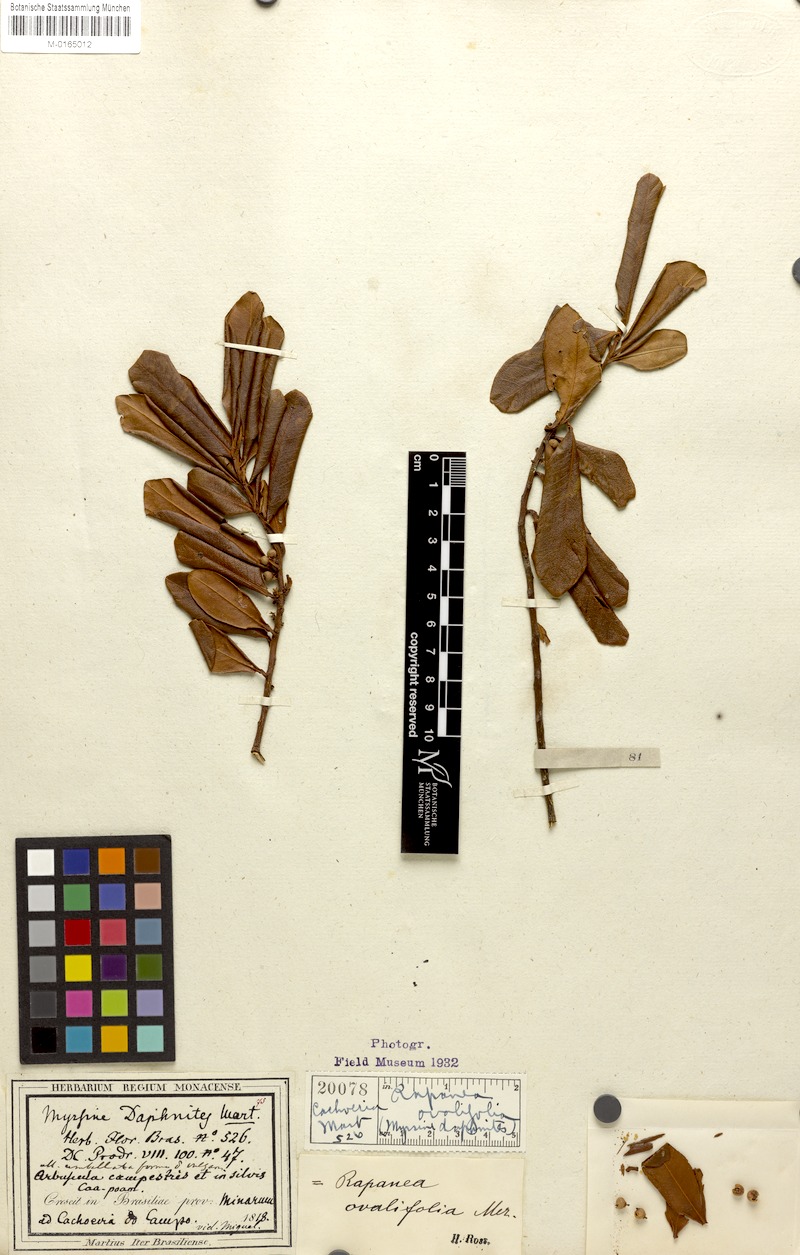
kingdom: Plantae
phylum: Tracheophyta
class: Magnoliopsida
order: Ericales
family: Primulaceae
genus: Myrsine
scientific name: Myrsine umbellata
